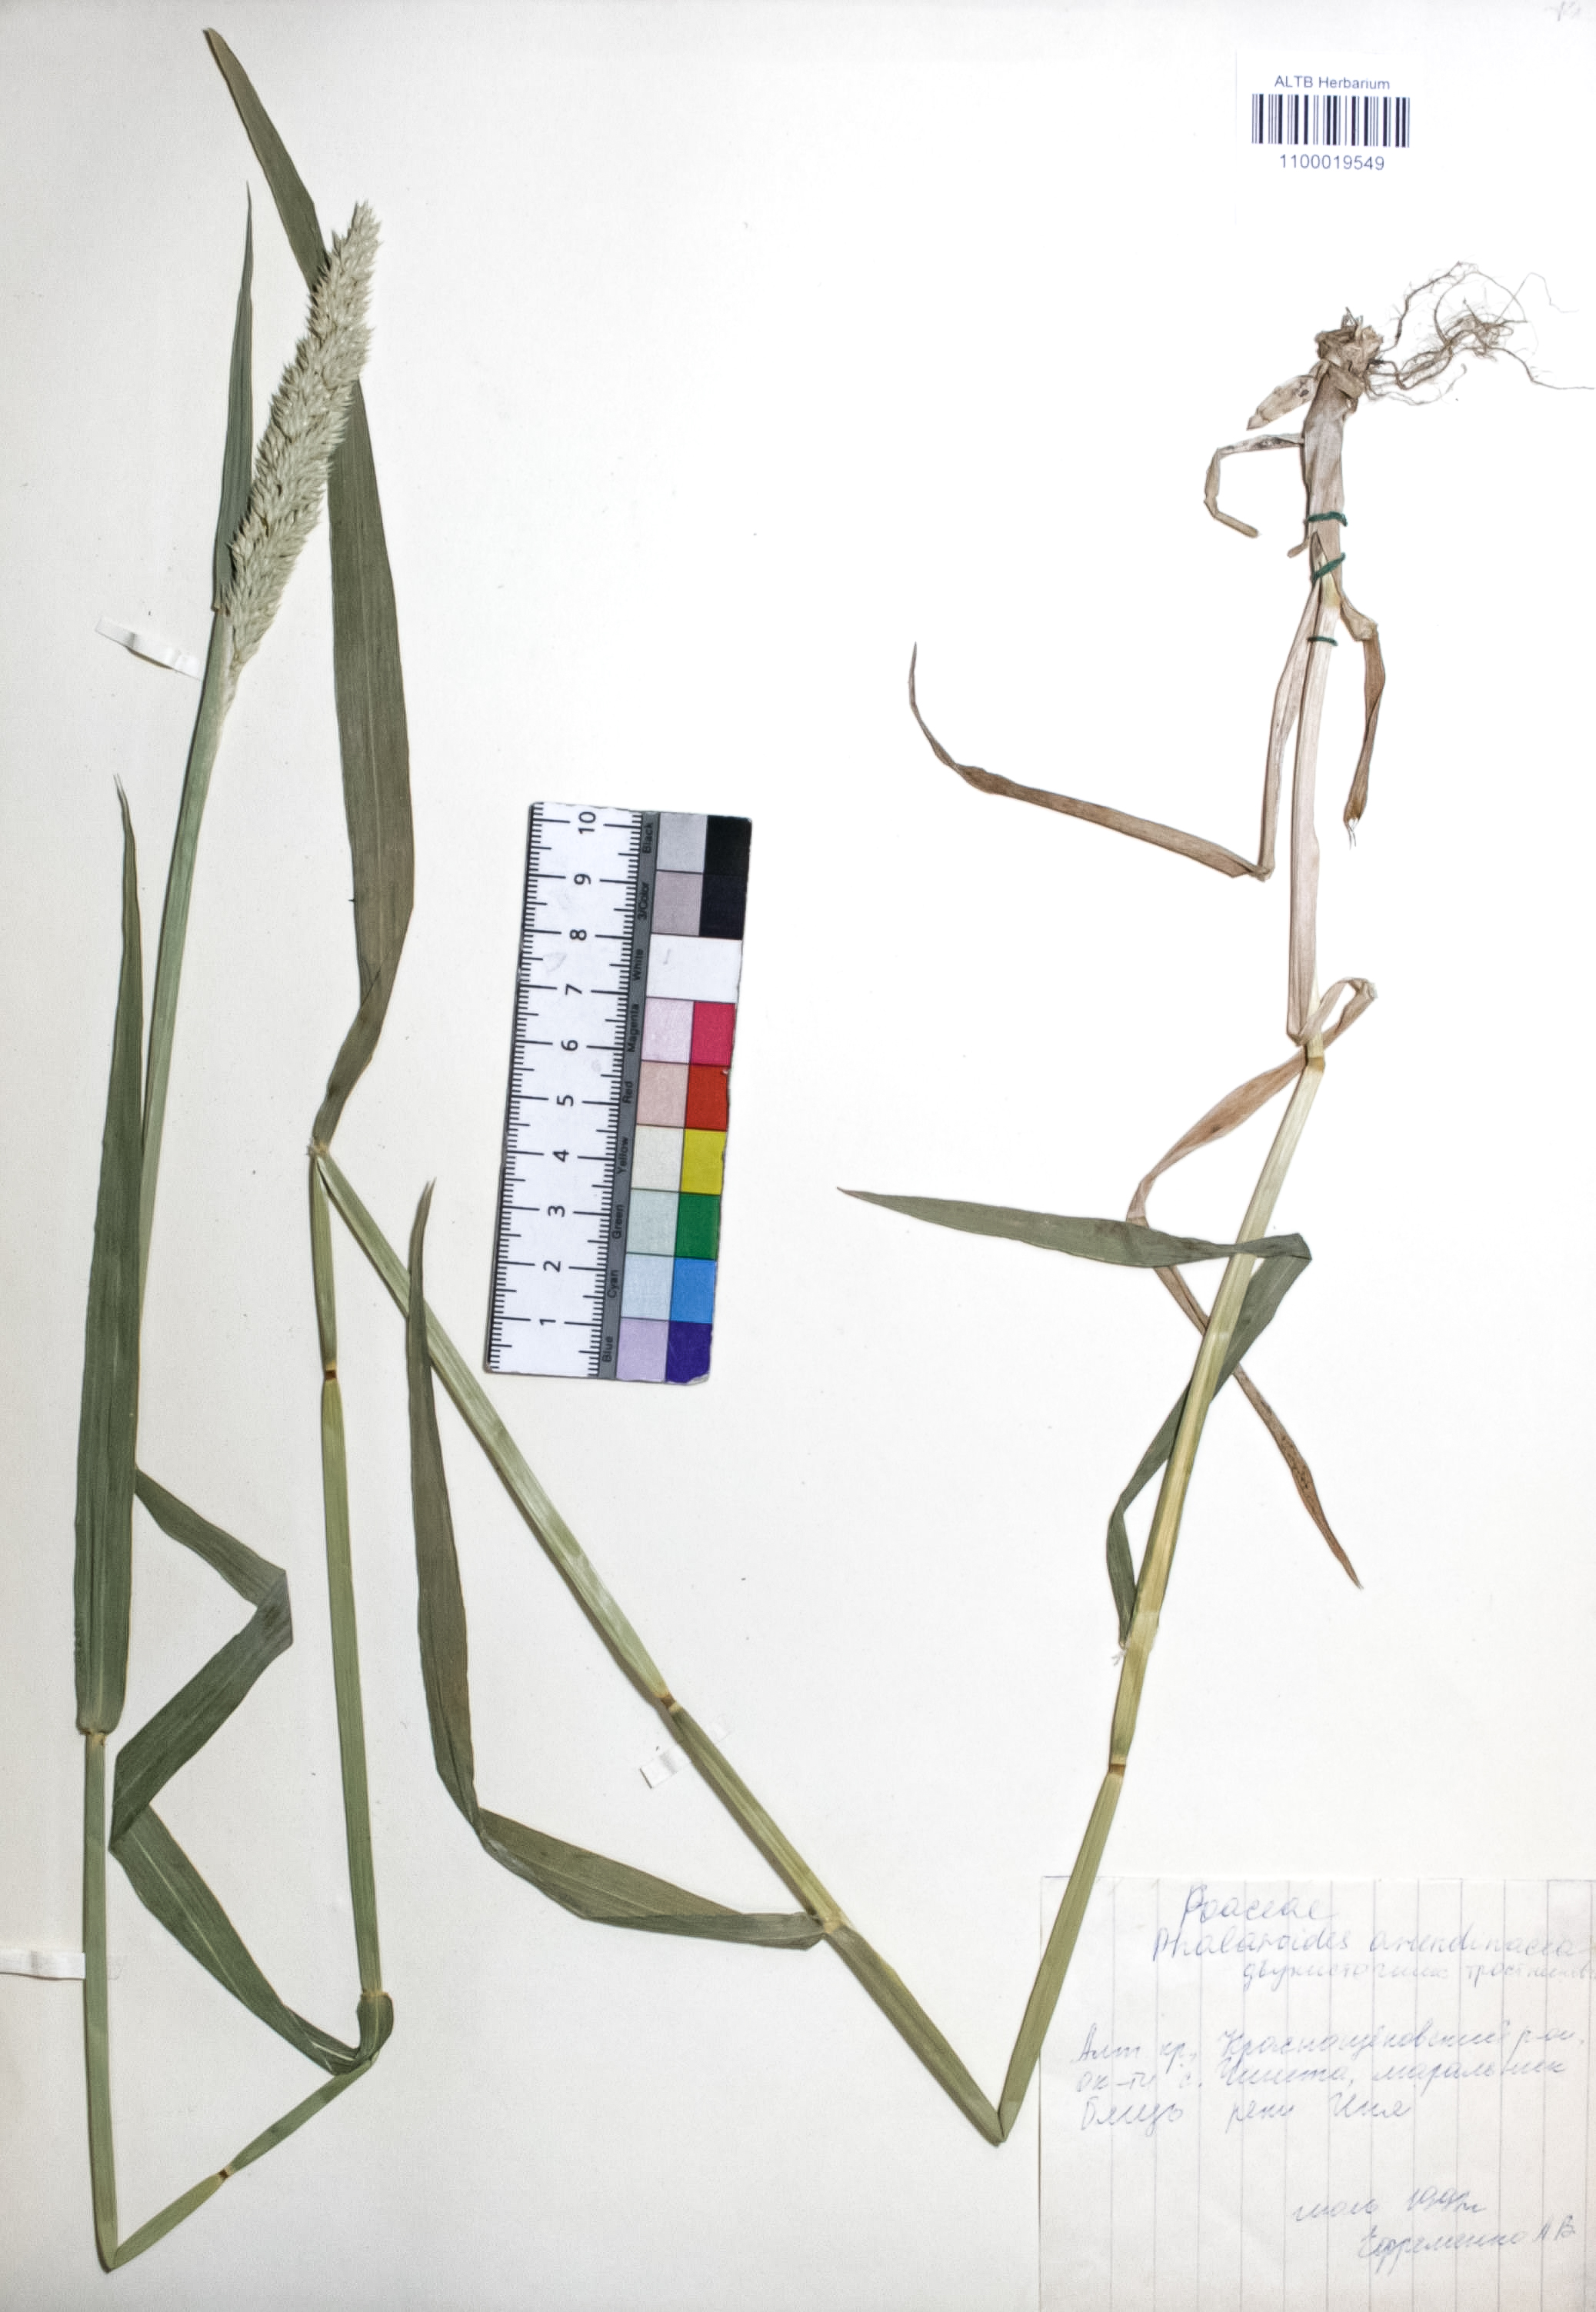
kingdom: Plantae
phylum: Tracheophyta
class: Liliopsida
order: Poales
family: Poaceae
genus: Phalaris
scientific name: Phalaris arundinacea
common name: Reed canary-grass
